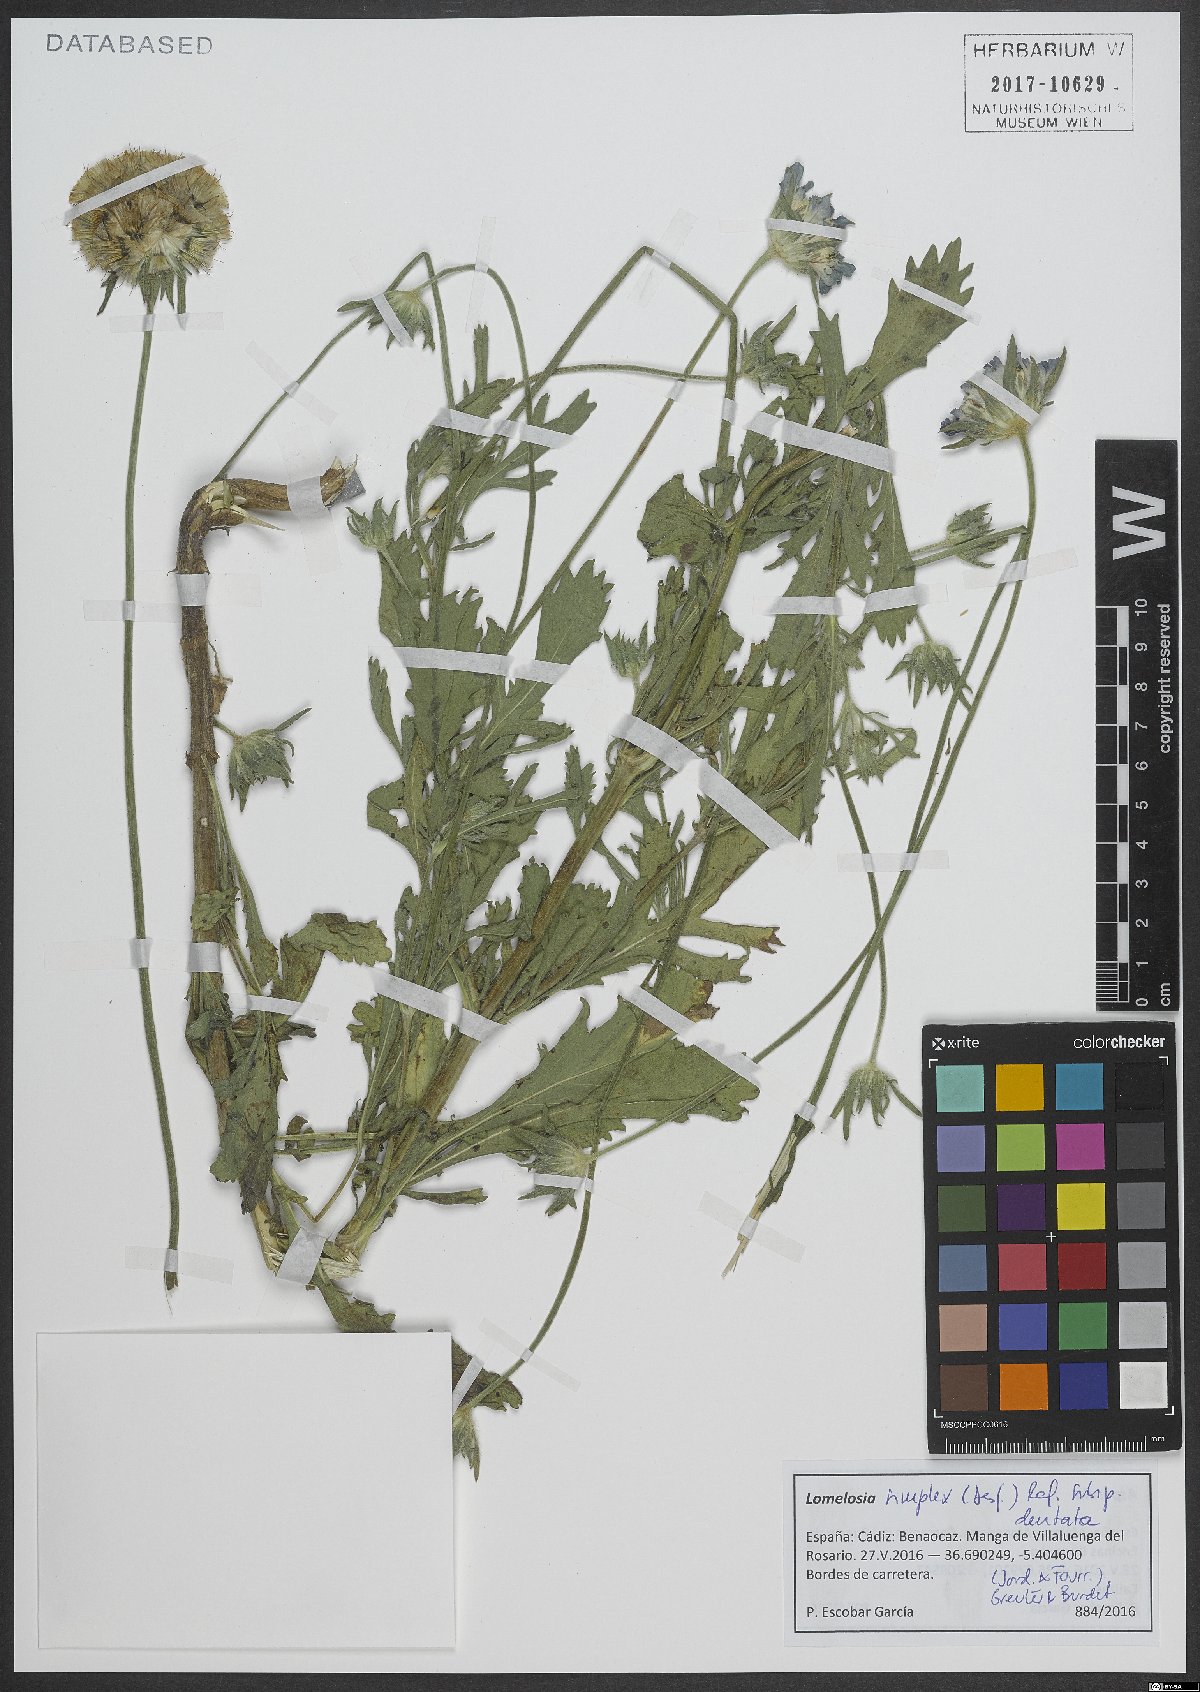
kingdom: Plantae
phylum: Tracheophyta
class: Magnoliopsida
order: Dipsacales
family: Caprifoliaceae
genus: Lomelosia
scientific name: Lomelosia simplex
